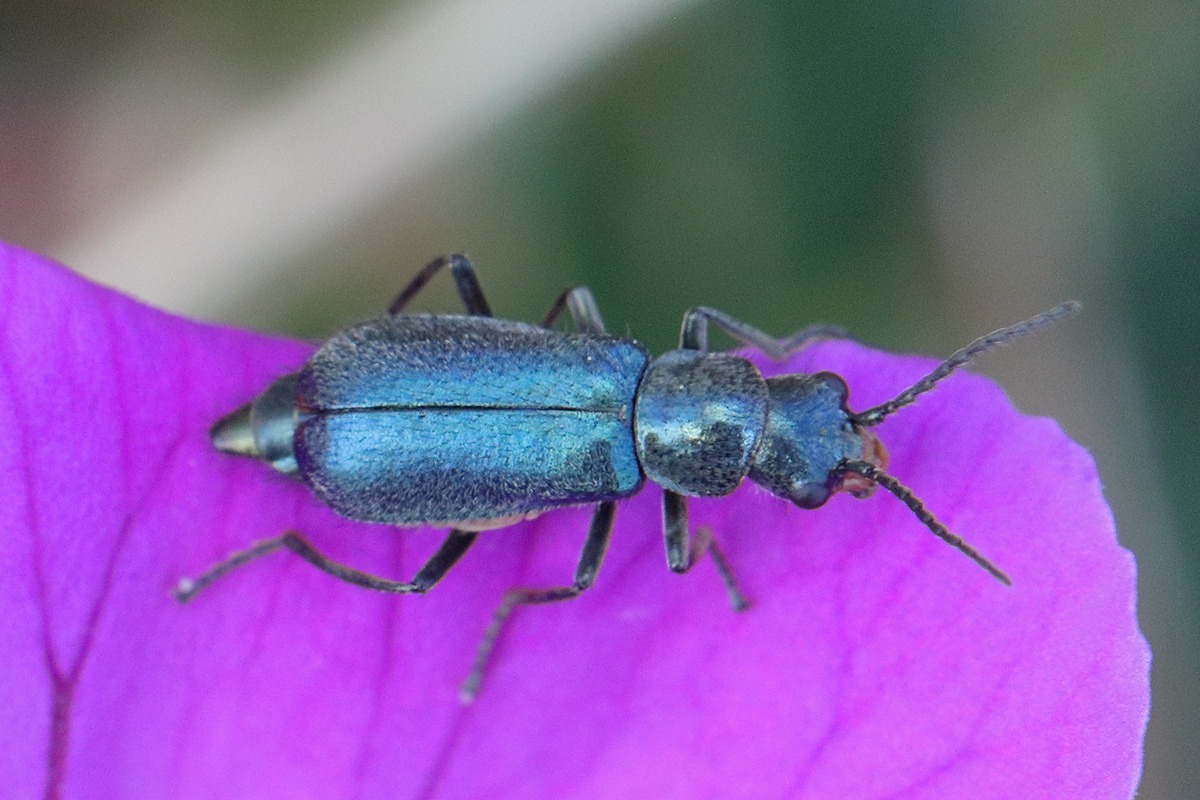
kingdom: Animalia
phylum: Arthropoda
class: Insecta
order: Coleoptera
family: Malachiidae
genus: Cordylepherus
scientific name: Cordylepherus viridis
